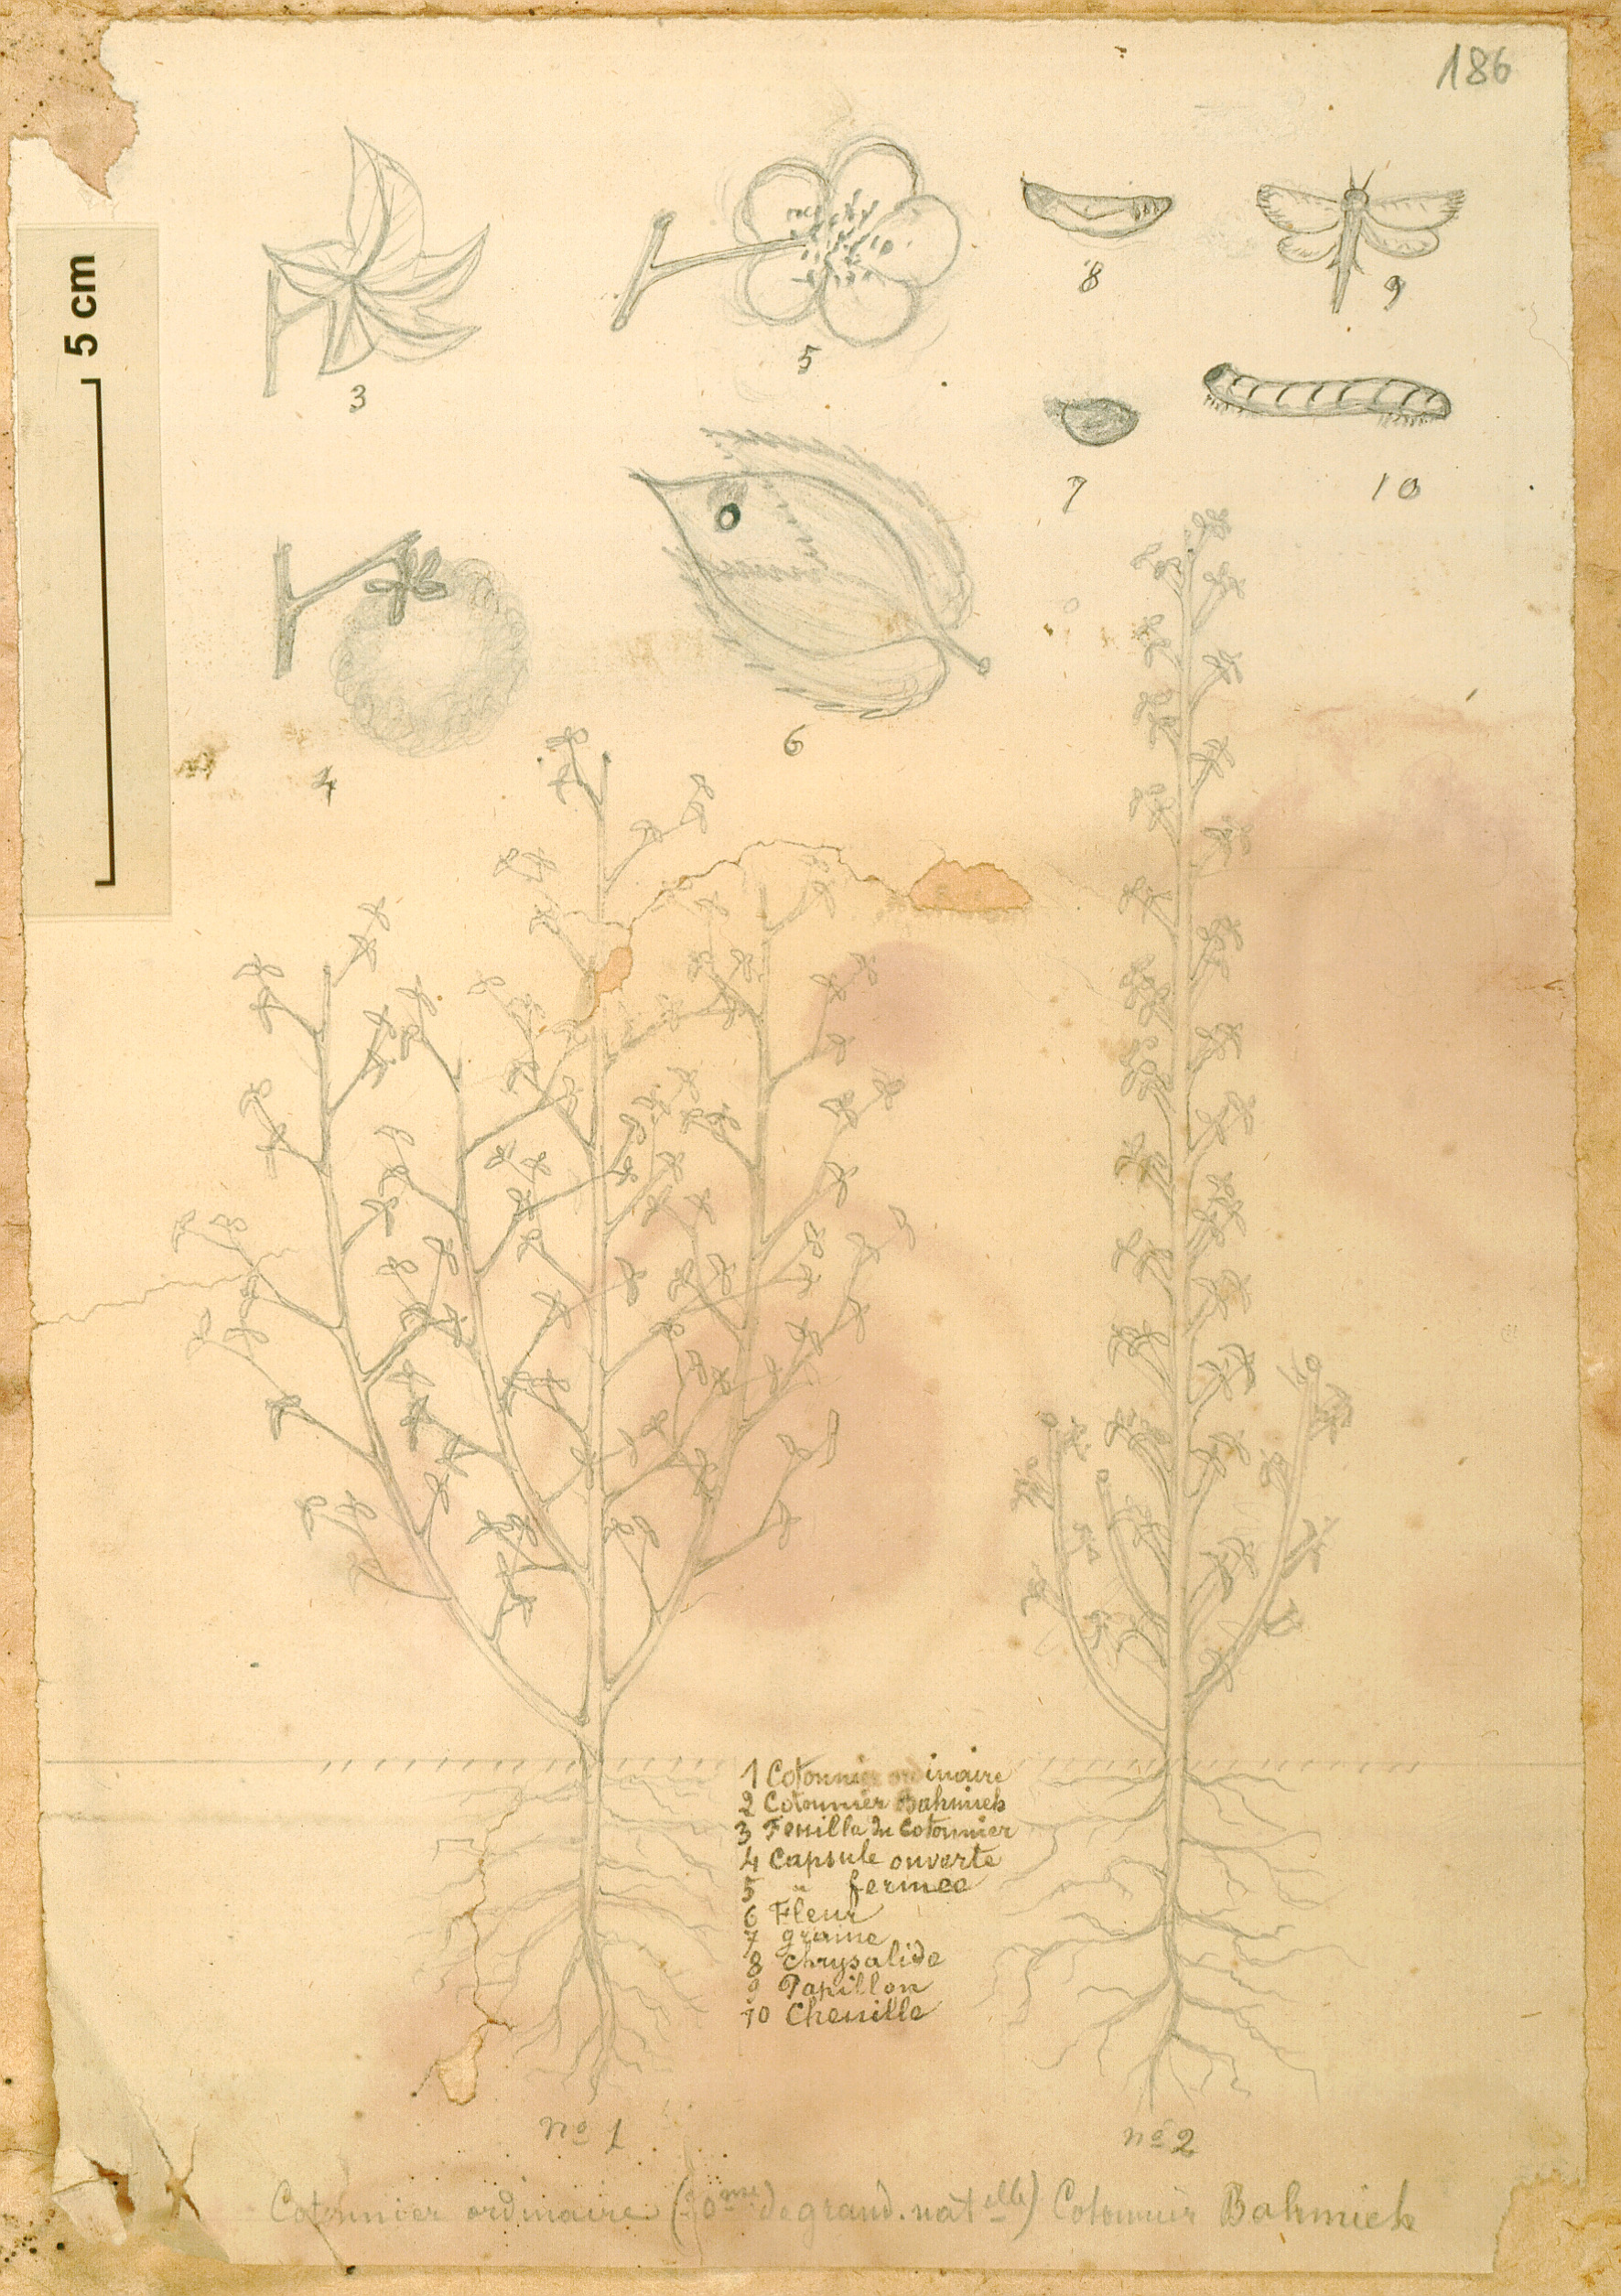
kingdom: Plantae
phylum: Tracheophyta
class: Magnoliopsida
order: Malvales
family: Malvaceae
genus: Gossypium
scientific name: Gossypium barbadense
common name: Creole cotton
